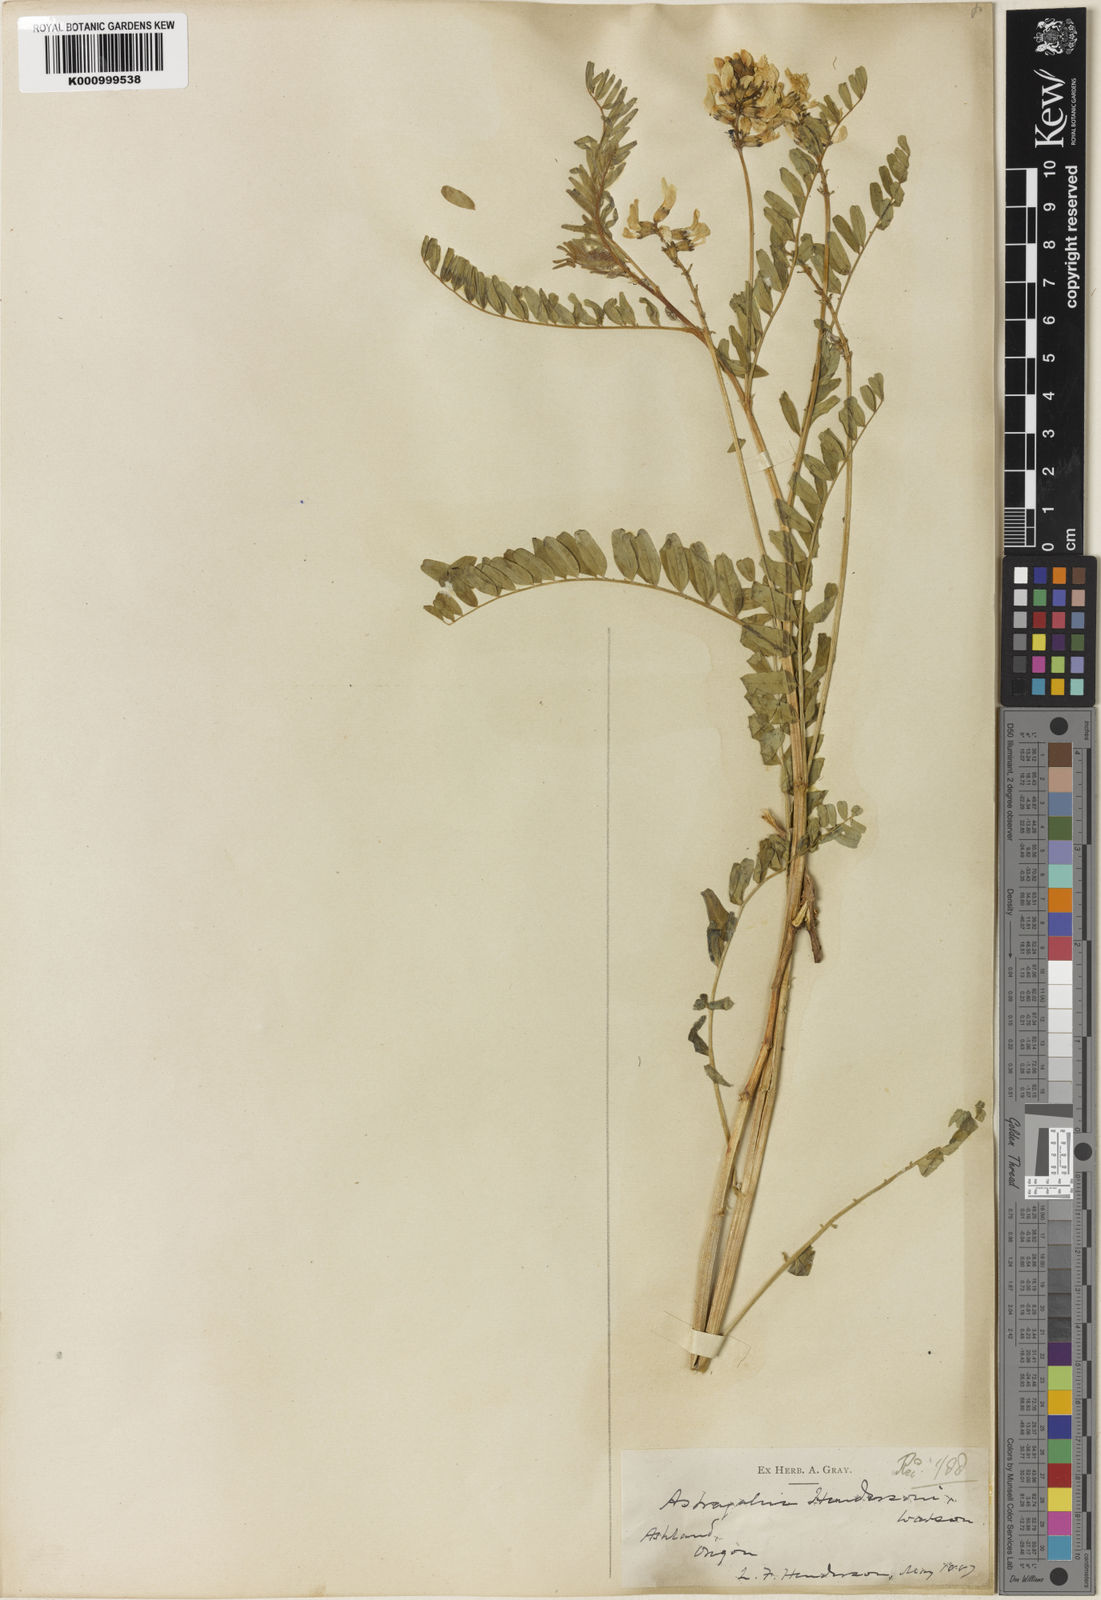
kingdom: Plantae
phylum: Tracheophyta
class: Magnoliopsida
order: Fabales
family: Fabaceae
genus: Astragalus
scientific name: Astragalus accidens
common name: Rogue river milkvetch
